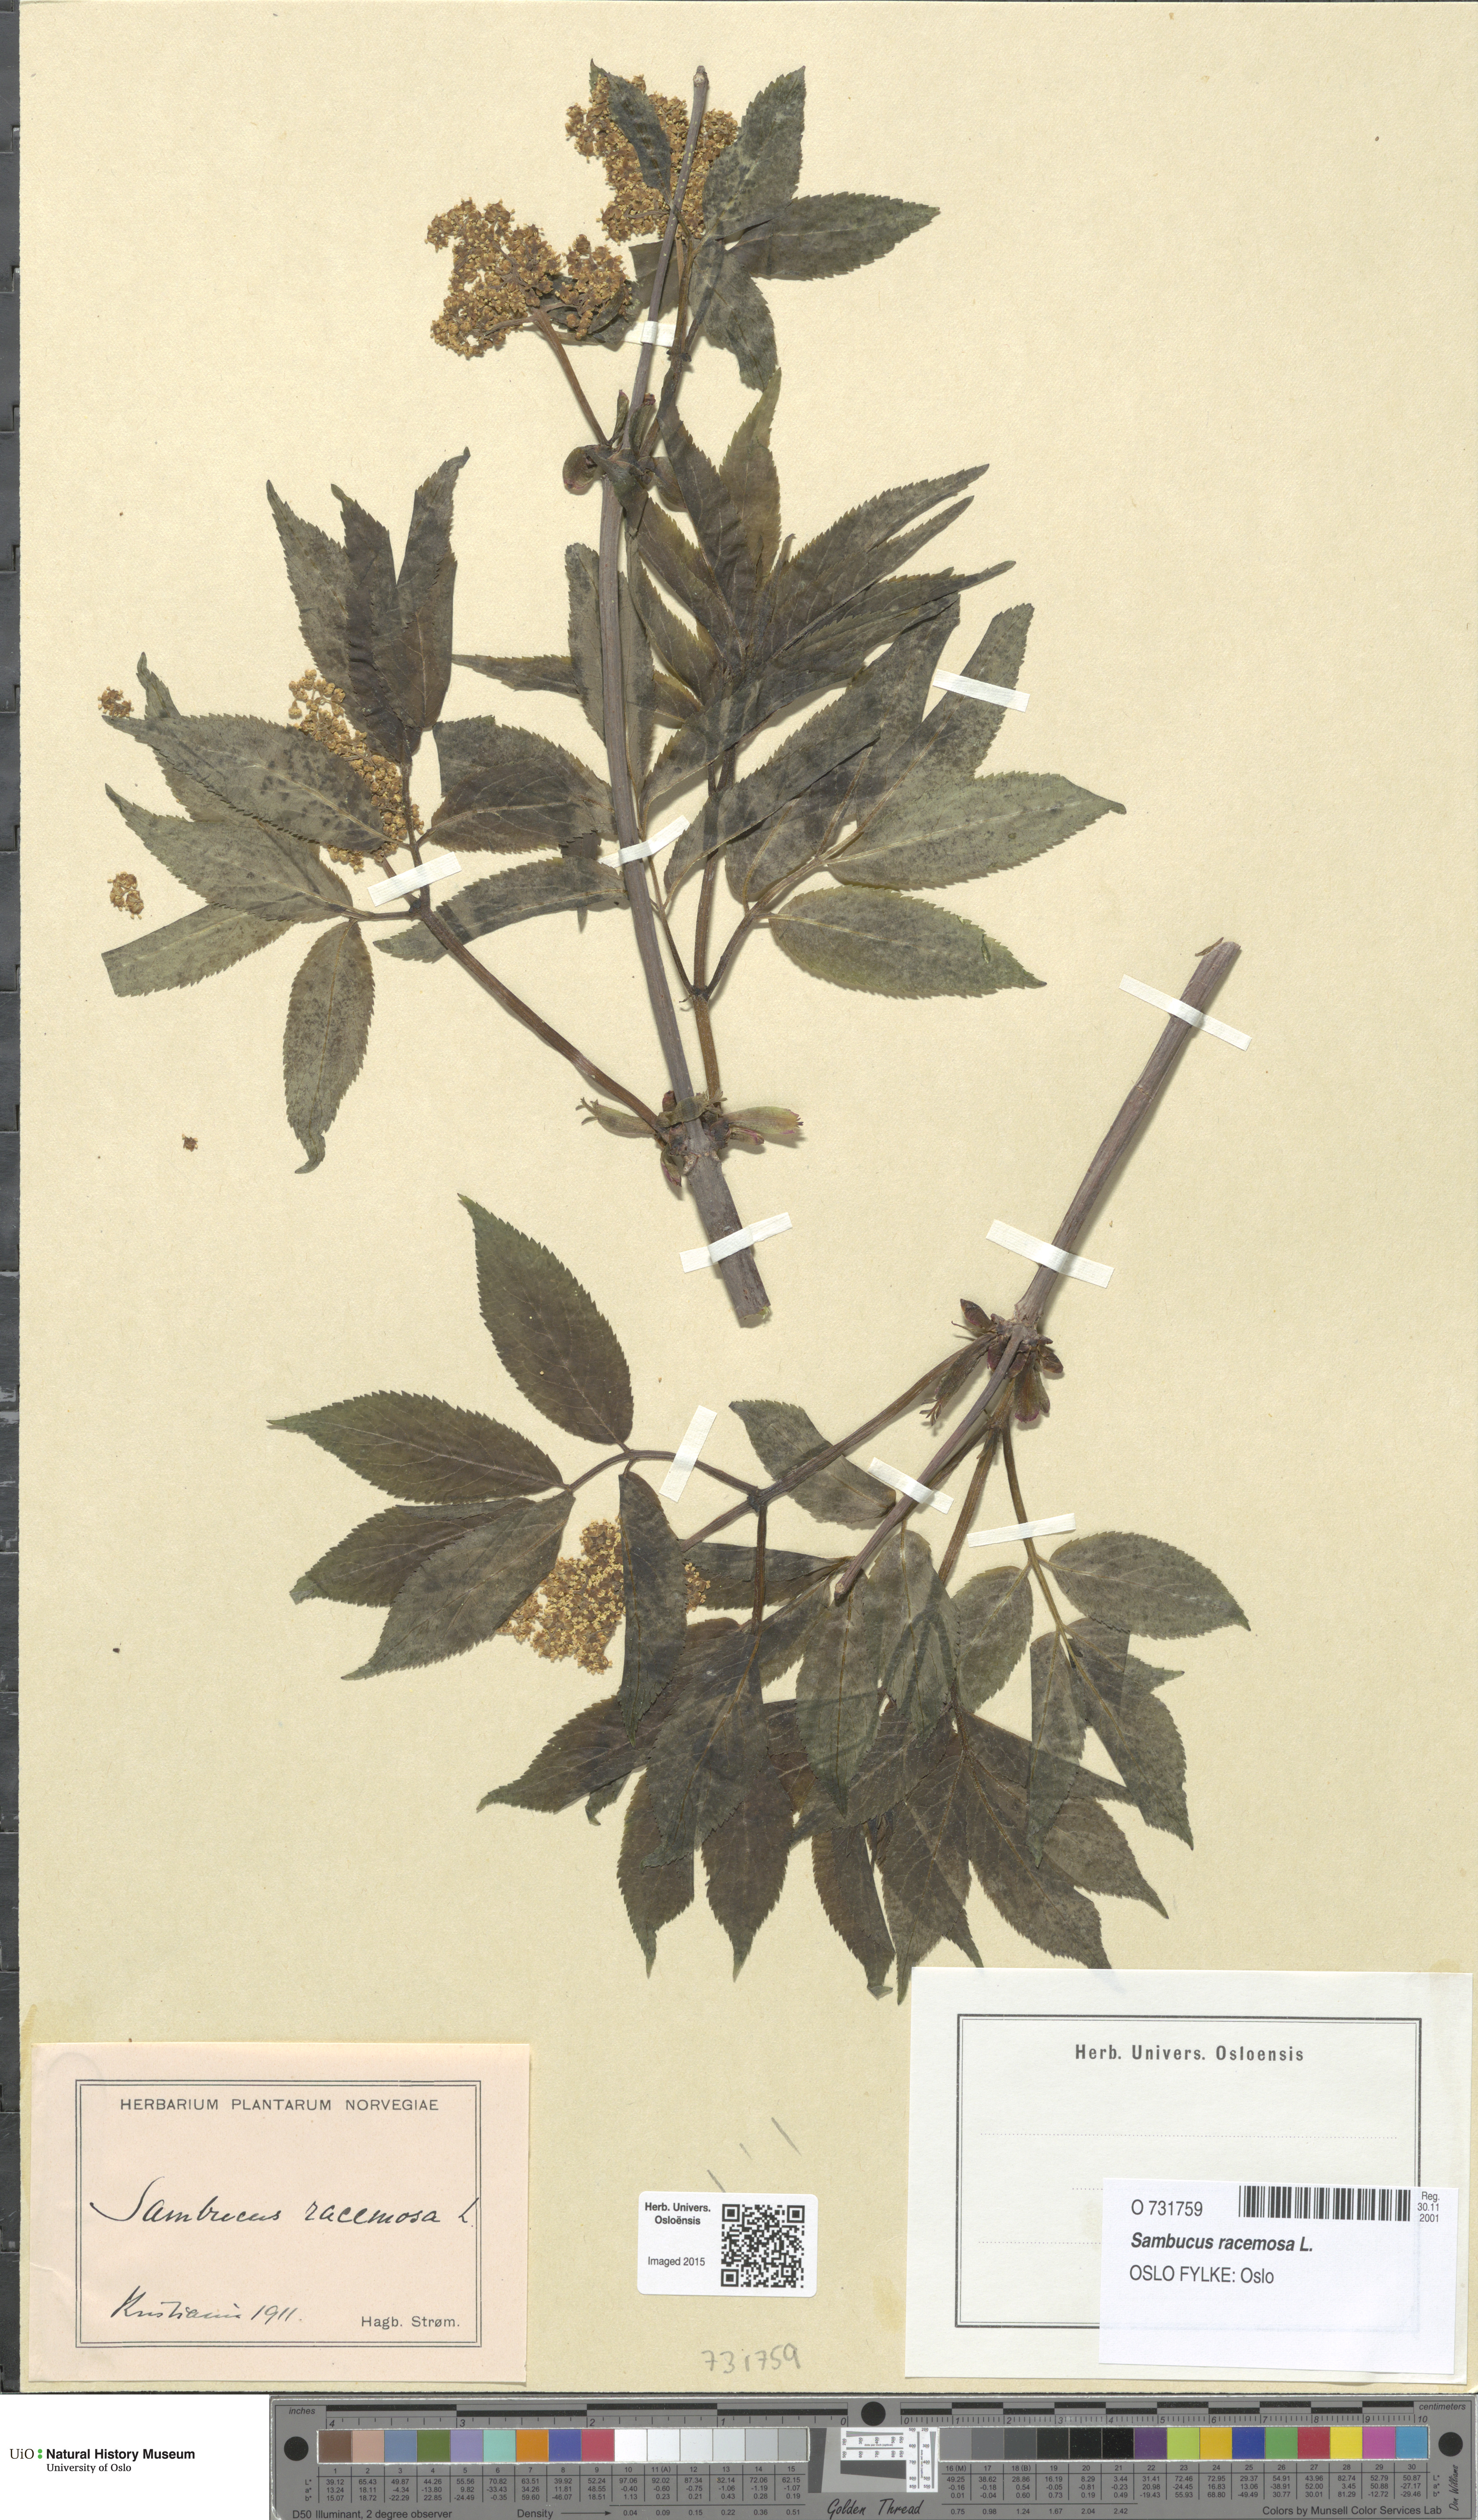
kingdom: Plantae
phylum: Tracheophyta
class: Magnoliopsida
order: Dipsacales
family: Viburnaceae
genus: Sambucus
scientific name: Sambucus racemosa
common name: Red-berried elder
